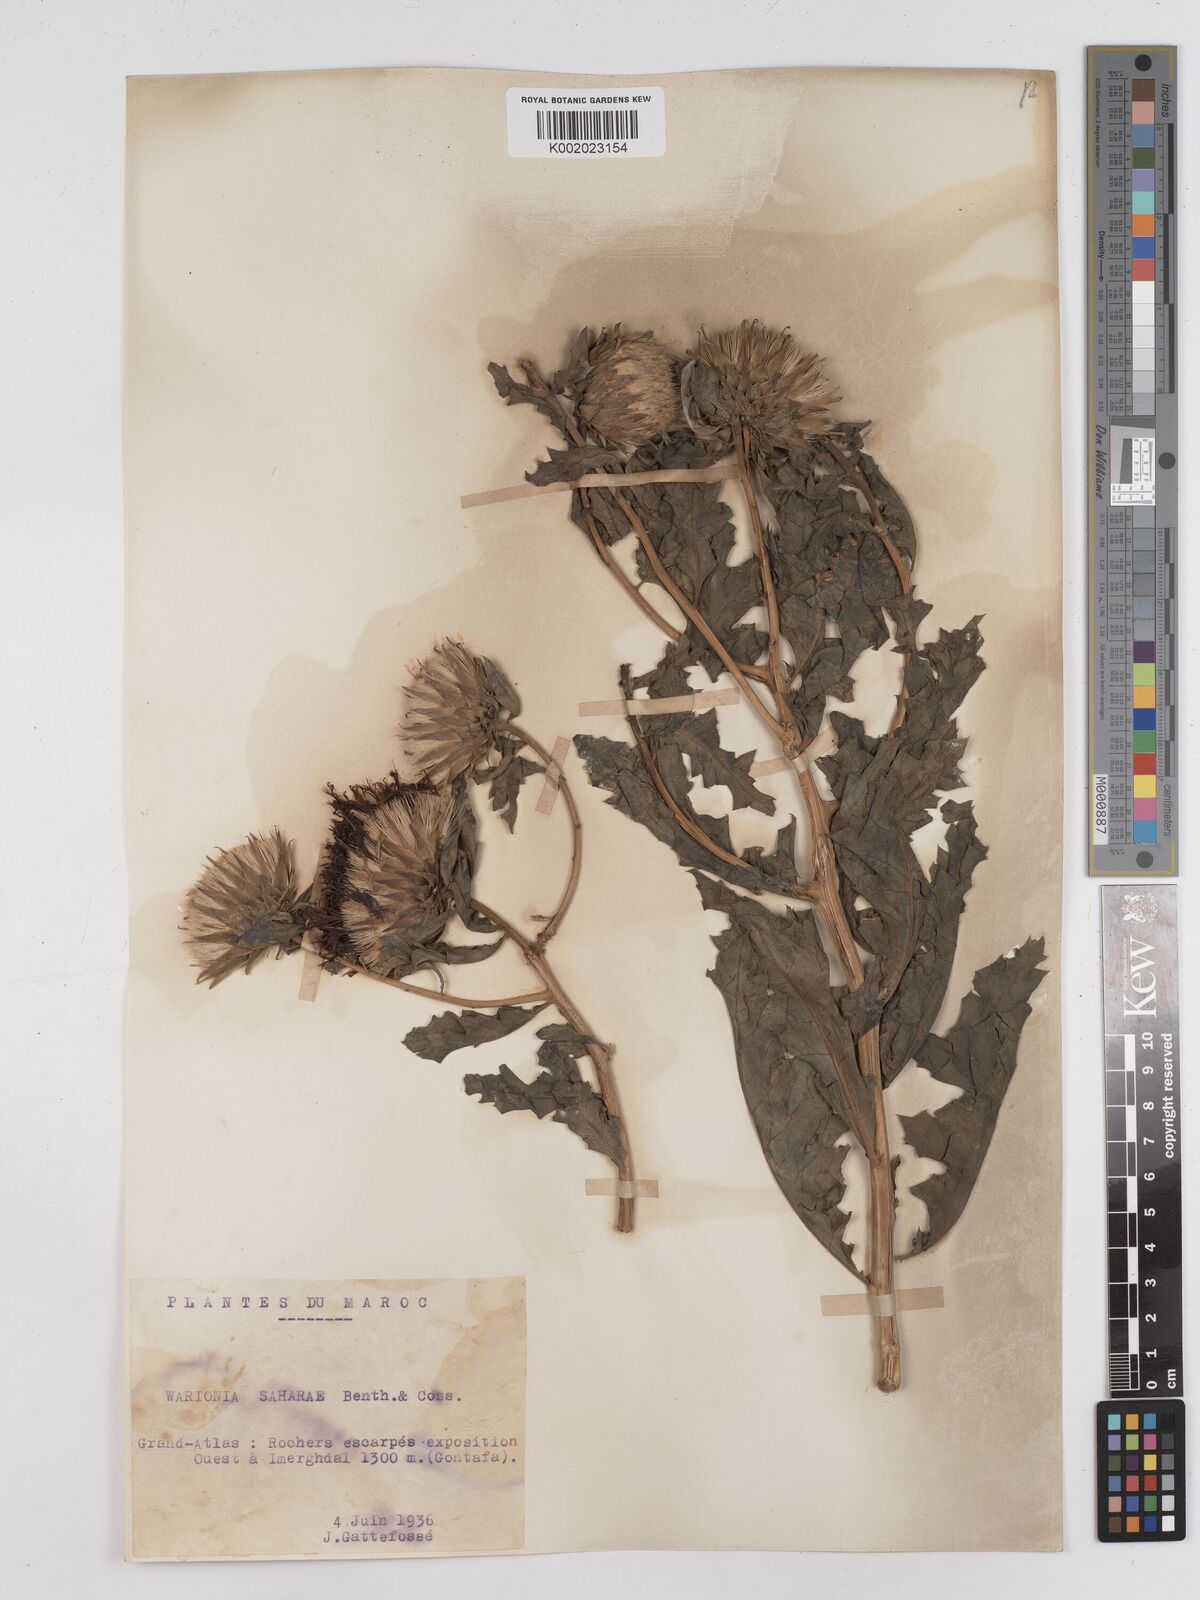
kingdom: Plantae
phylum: Tracheophyta
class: Magnoliopsida
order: Asterales
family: Asteraceae
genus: Warionia
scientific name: Warionia saharae
